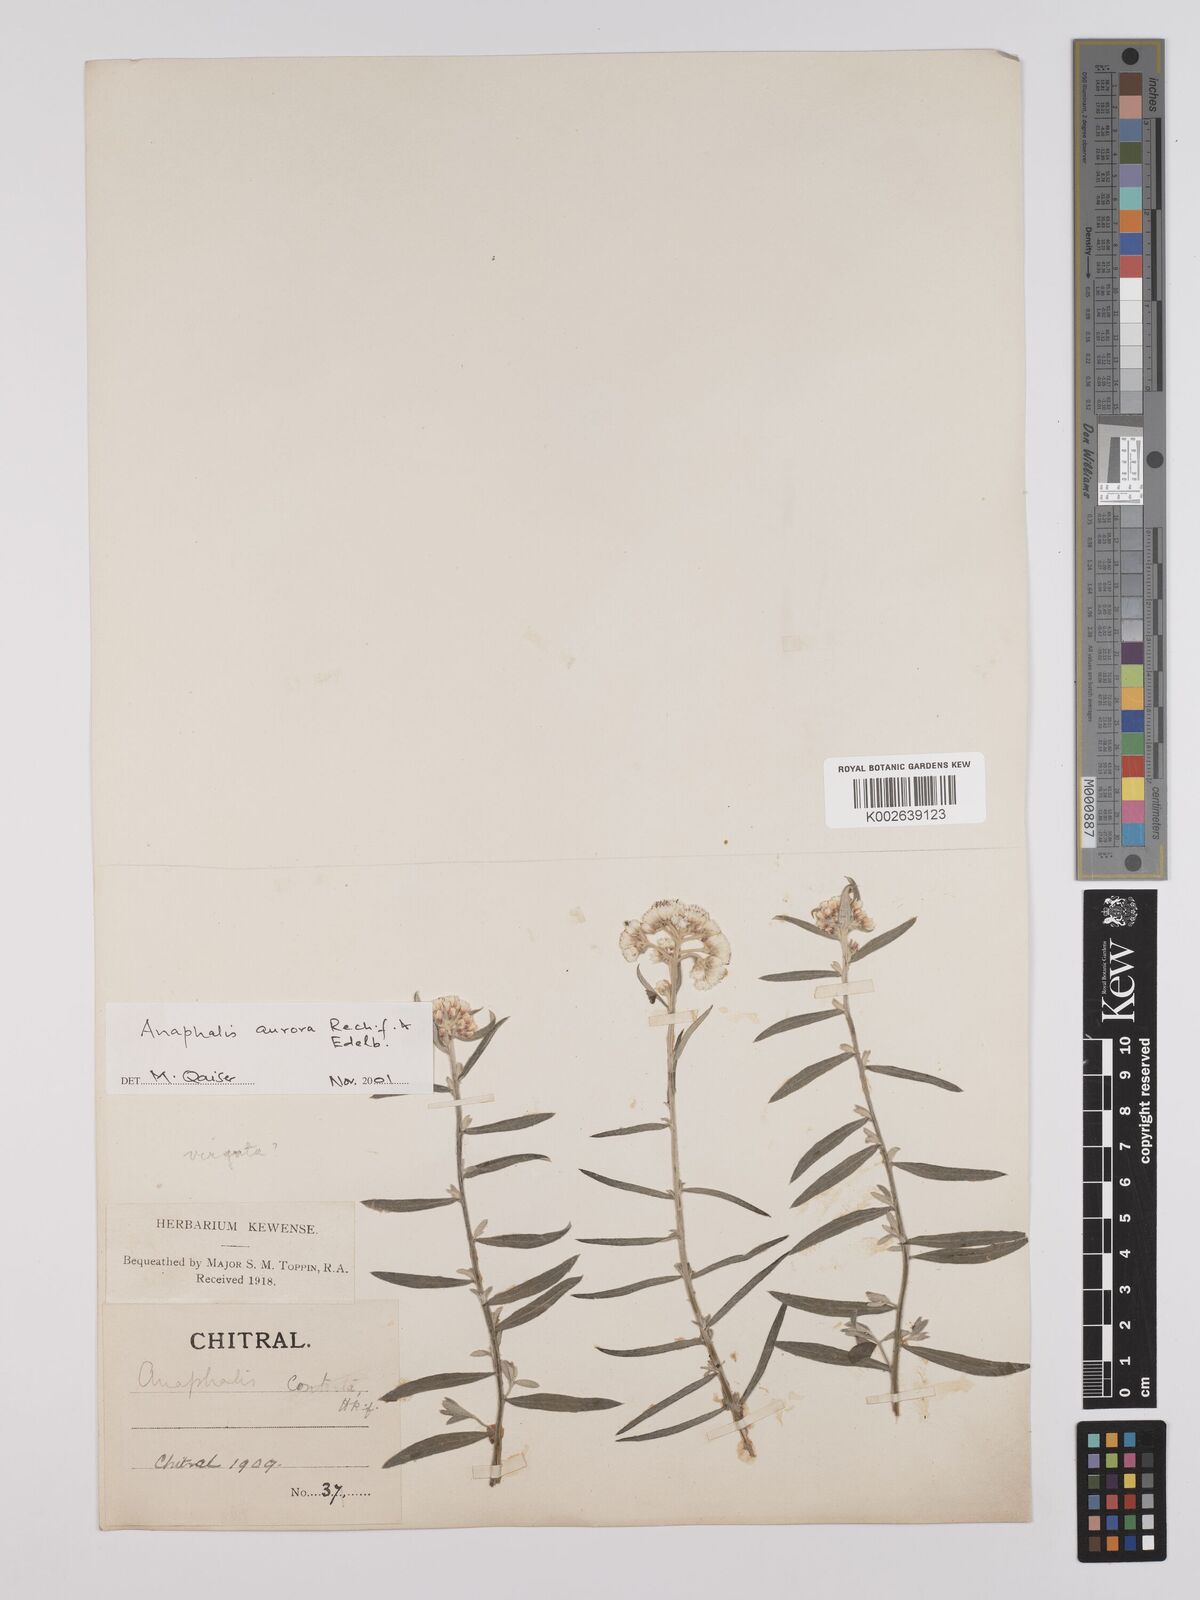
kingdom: Plantae
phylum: Tracheophyta
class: Magnoliopsida
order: Asterales
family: Asteraceae
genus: Anaphalis
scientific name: Anaphalis contorta
